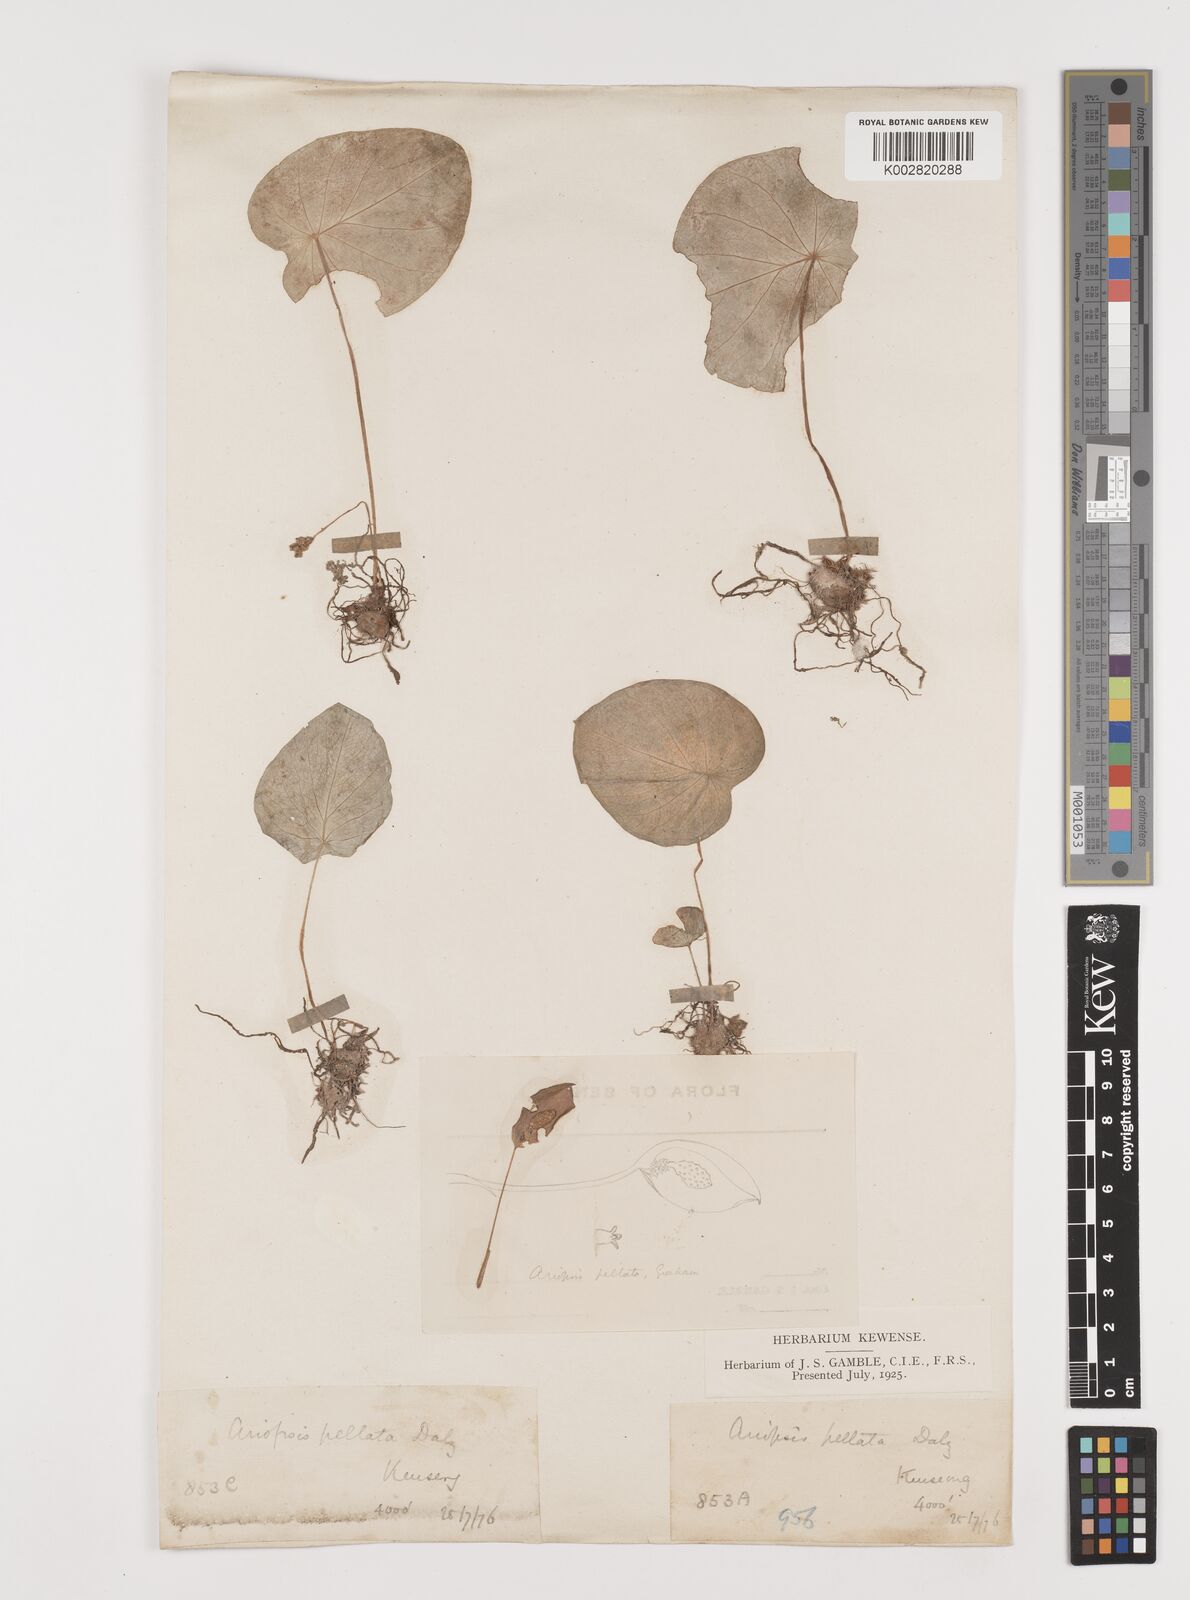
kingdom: Plantae
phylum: Tracheophyta
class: Liliopsida
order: Alismatales
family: Araceae
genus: Ariopsis
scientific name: Ariopsis peltata
